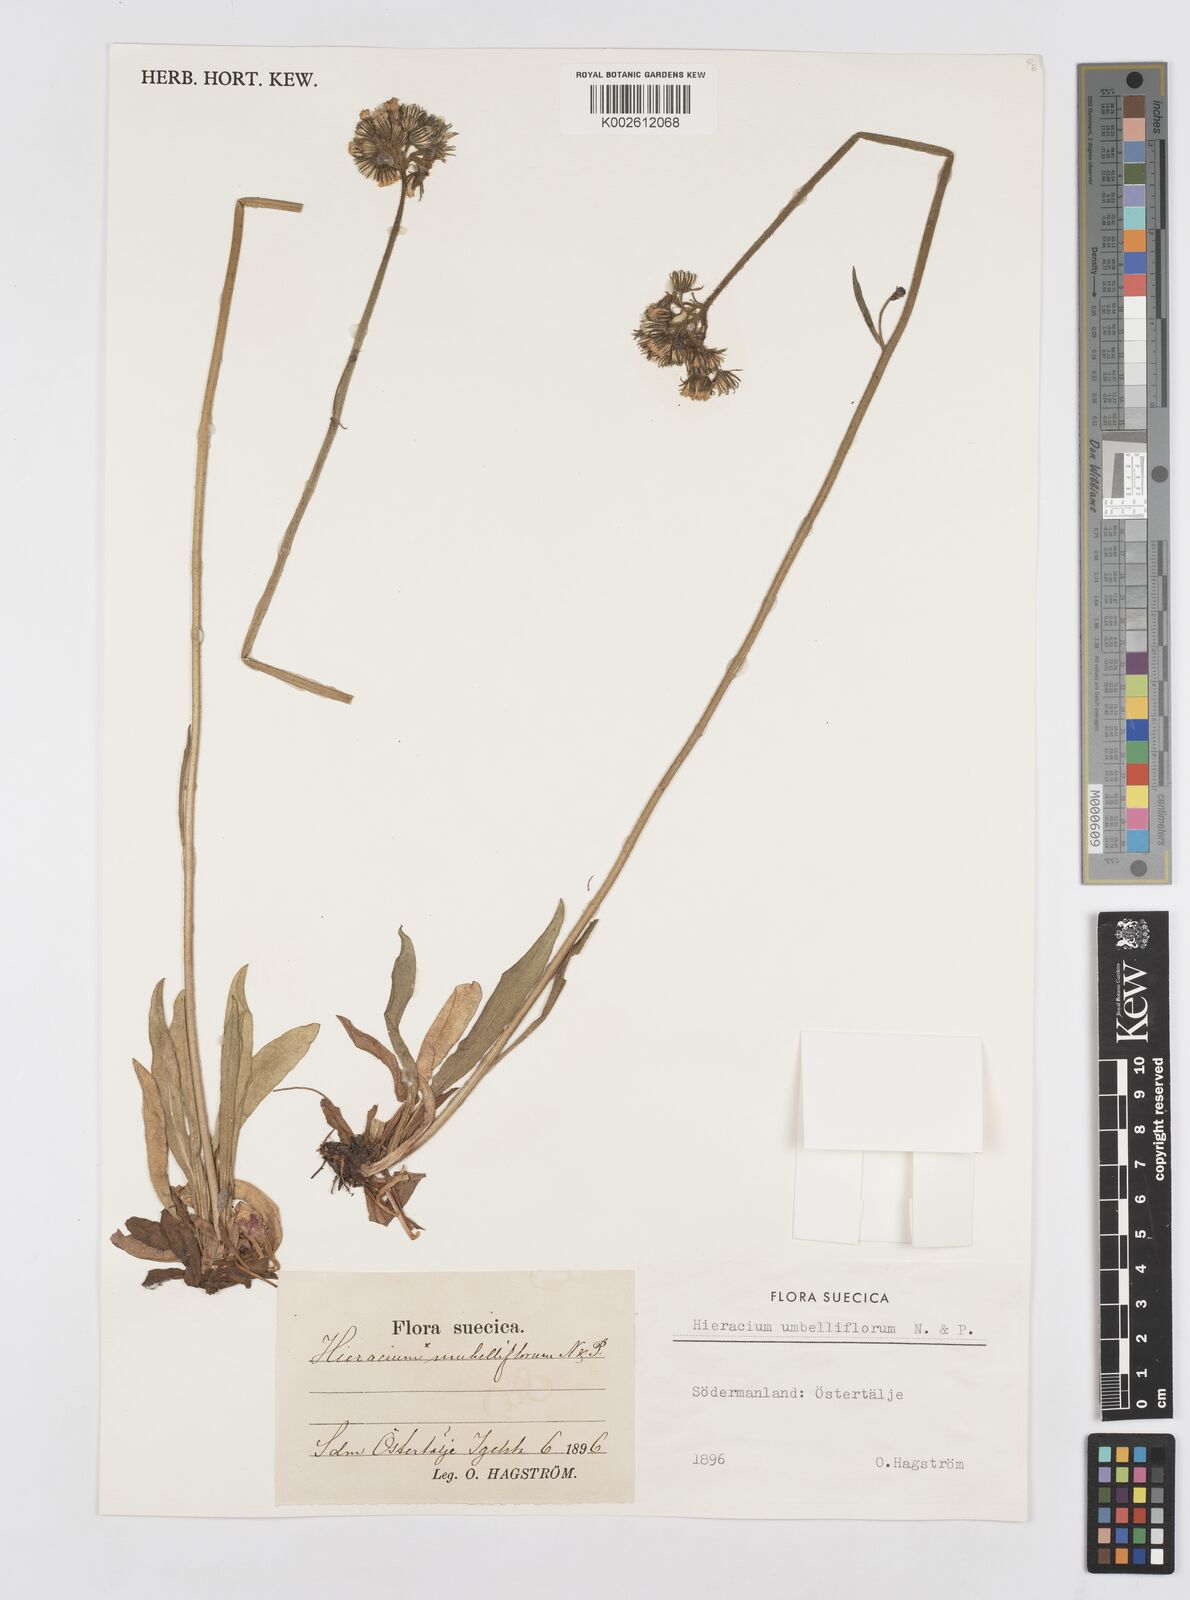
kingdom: Plantae
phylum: Tracheophyta
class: Magnoliopsida
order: Asterales
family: Asteraceae
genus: Hieracium
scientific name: Hieracium umbelliflorum
